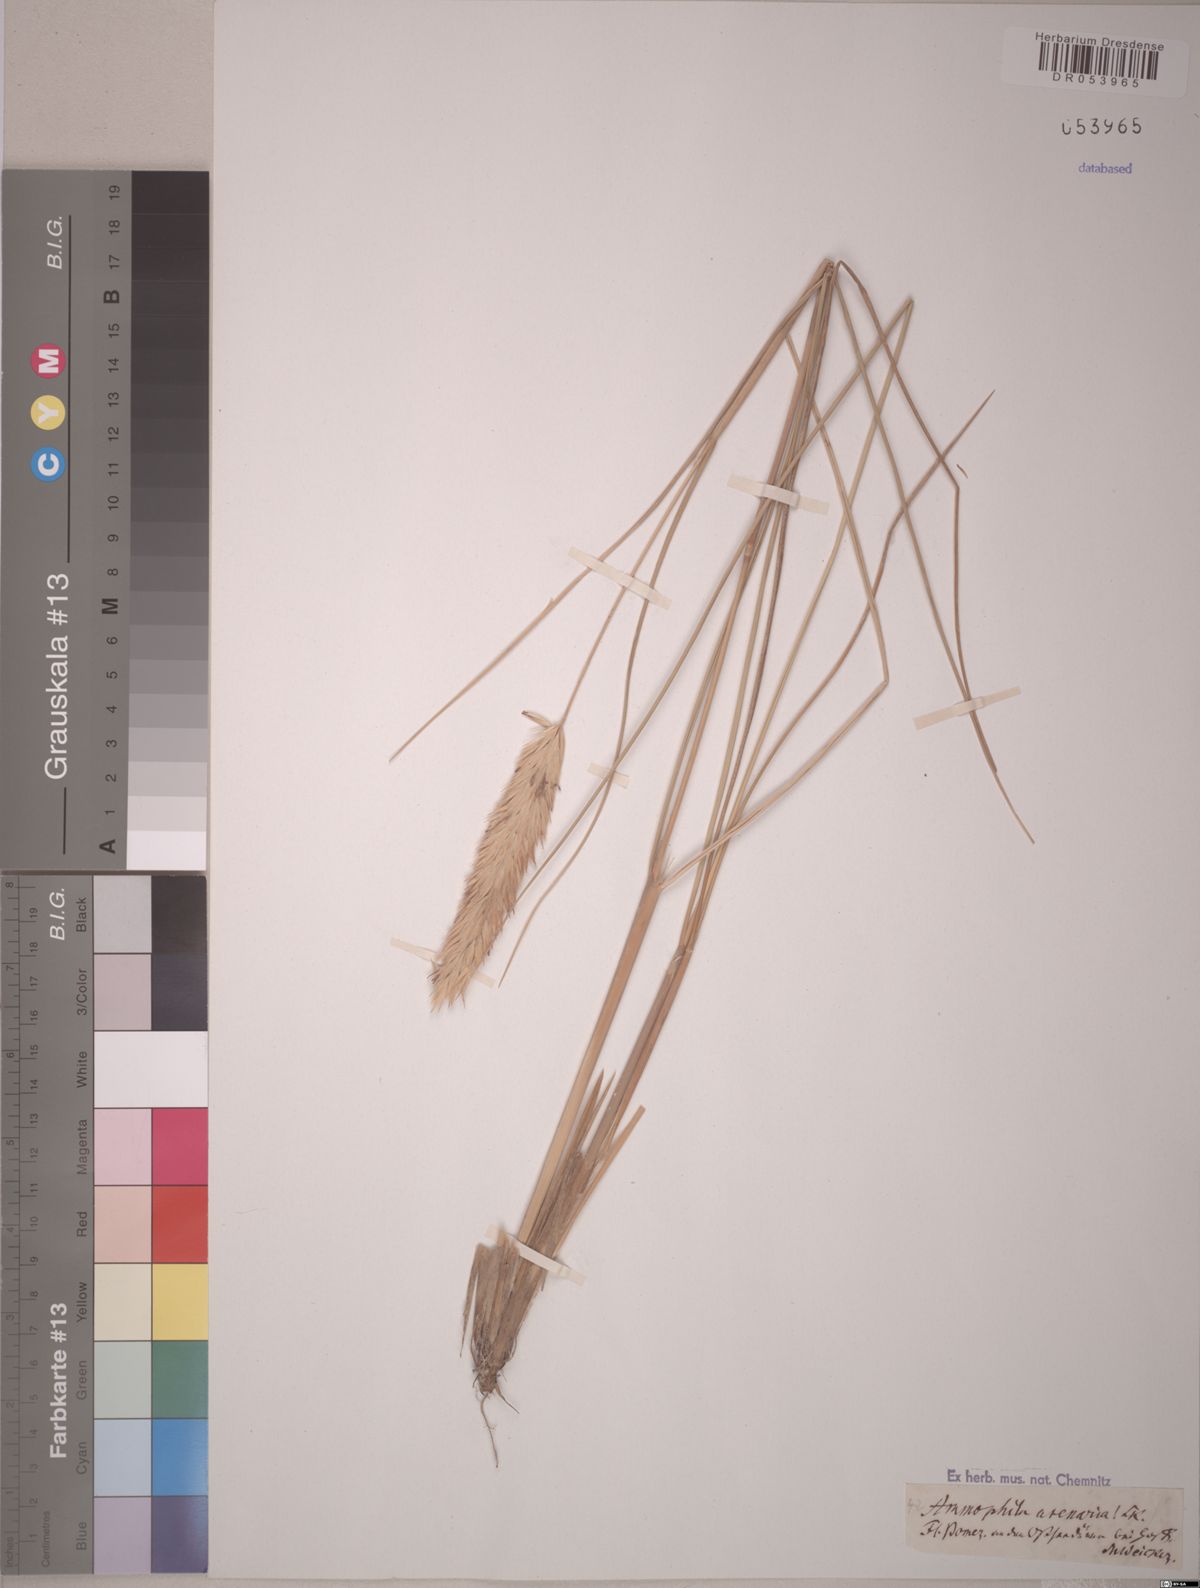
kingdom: Plantae
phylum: Tracheophyta
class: Liliopsida
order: Poales
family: Poaceae
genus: Calamagrostis
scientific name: Calamagrostis arenaria
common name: European beachgrass
